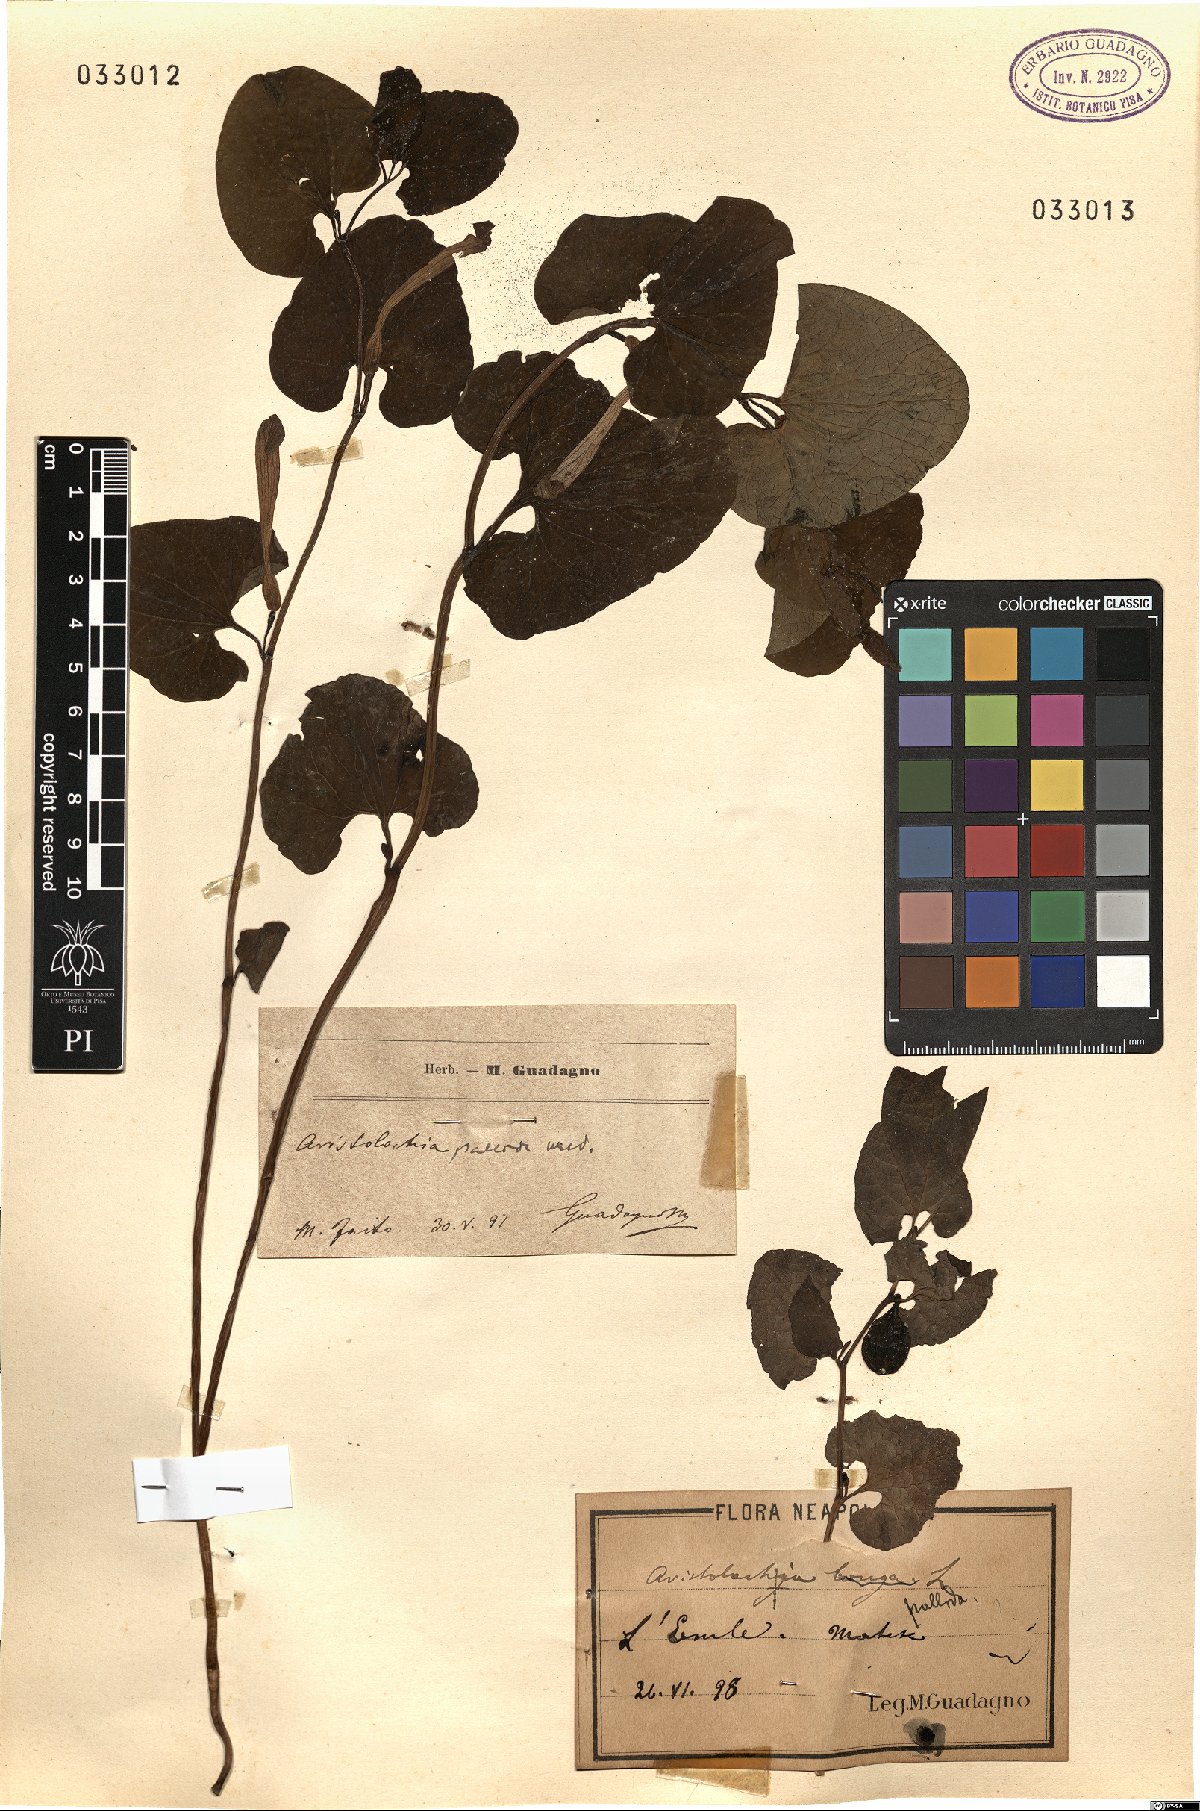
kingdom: Plantae
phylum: Tracheophyta
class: Magnoliopsida
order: Piperales
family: Aristolochiaceae
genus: Aristolochia
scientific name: Aristolochia pallida
